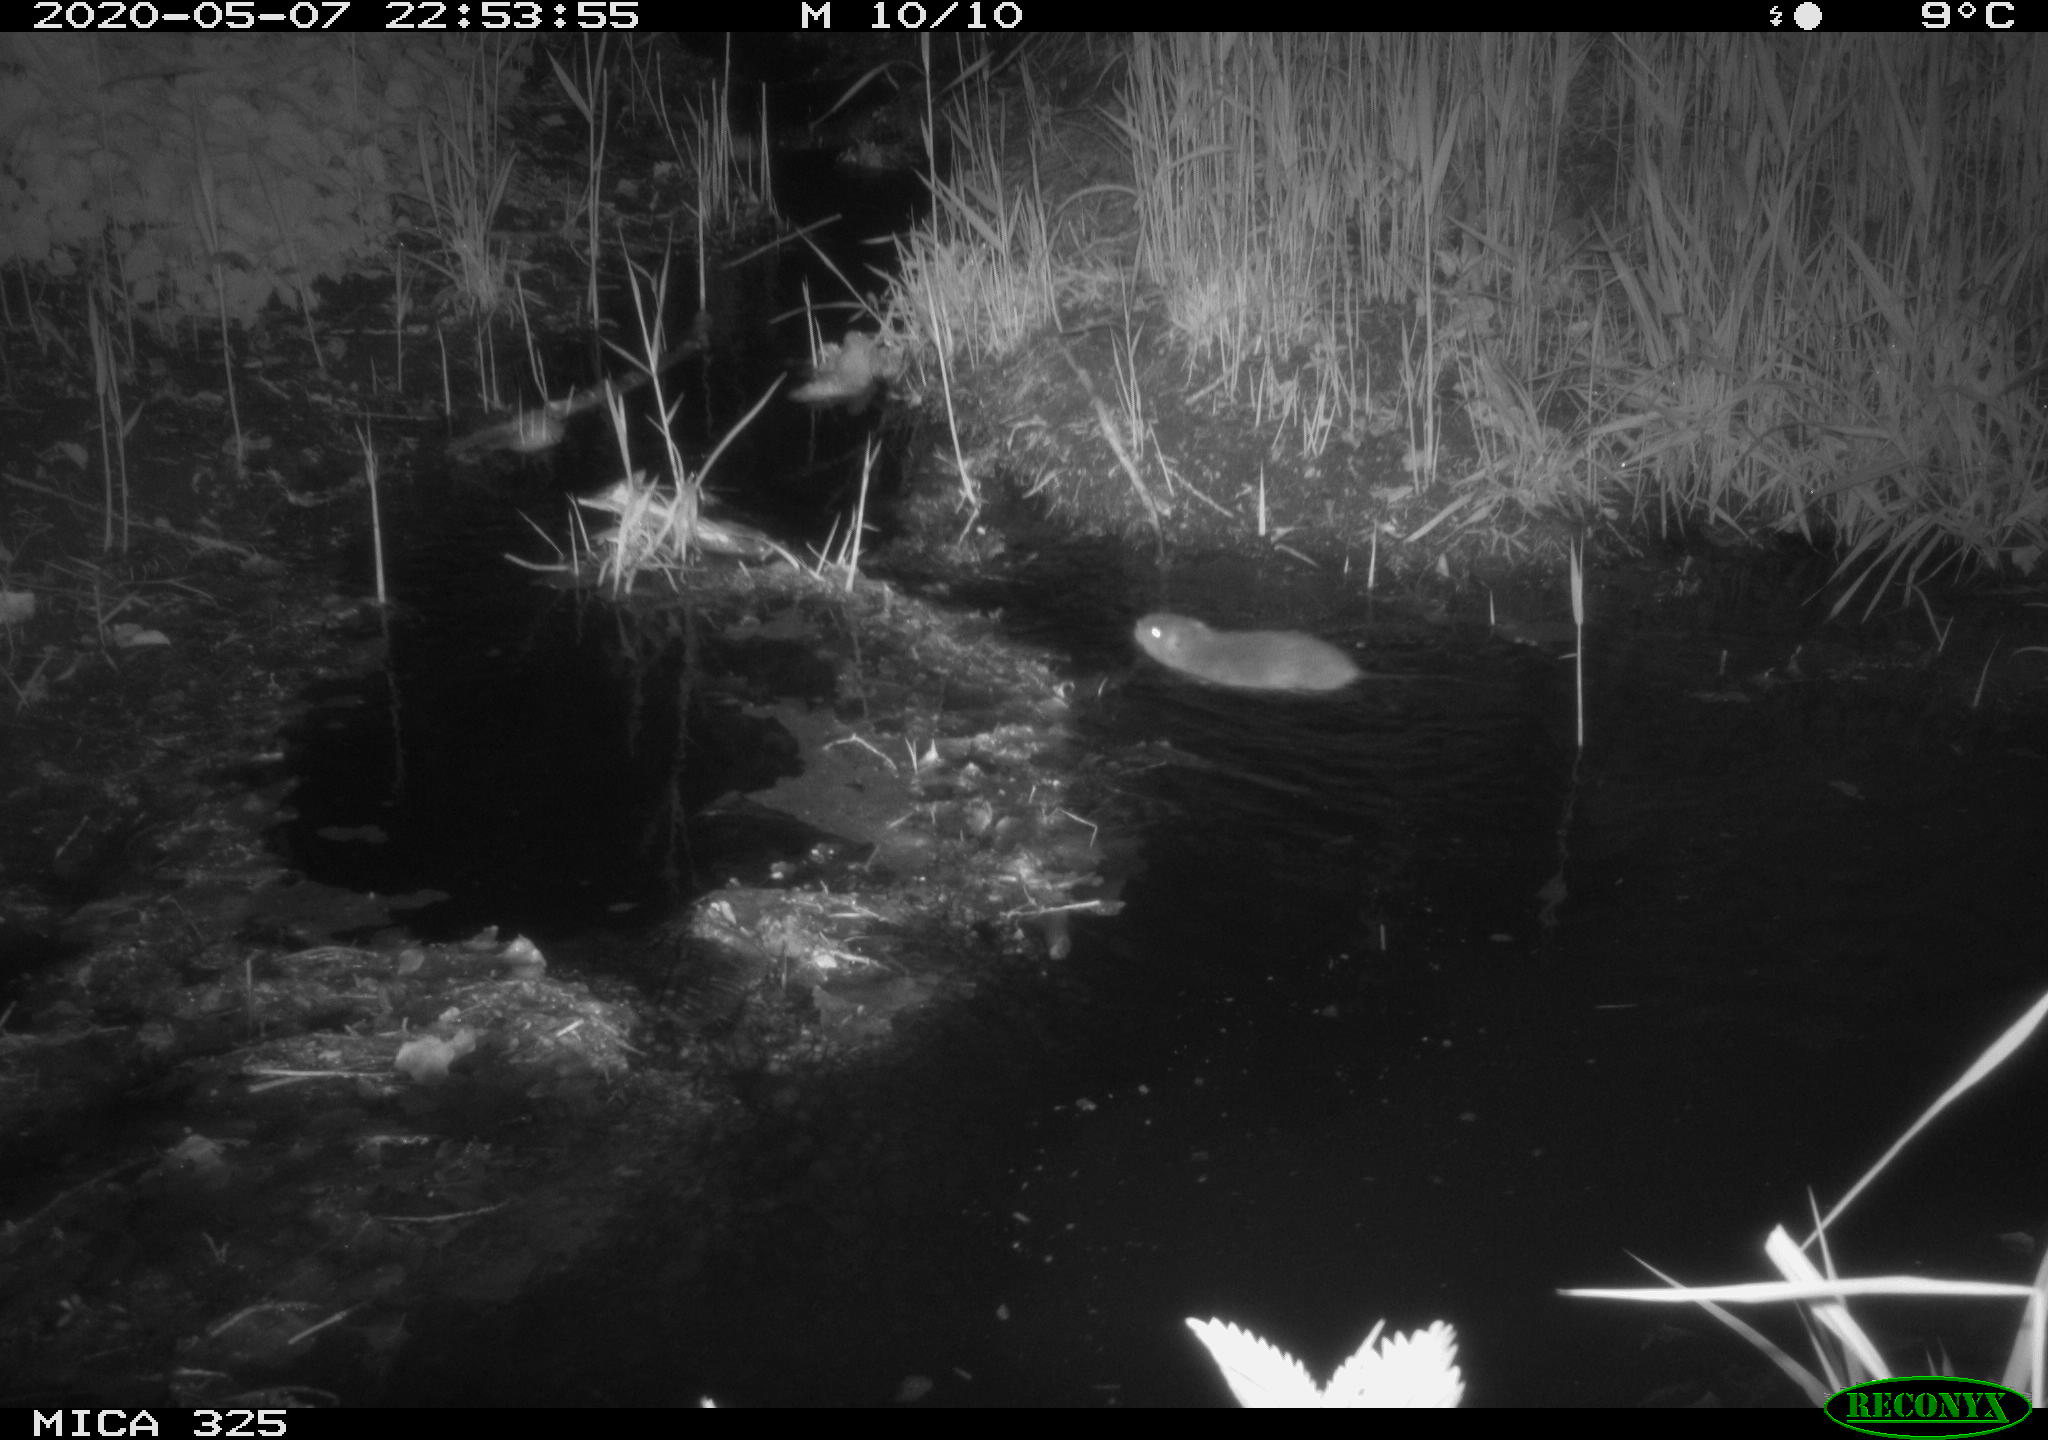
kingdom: Animalia
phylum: Chordata
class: Mammalia
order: Rodentia
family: Cricetidae
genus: Ondatra
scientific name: Ondatra zibethicus
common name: Muskrat
